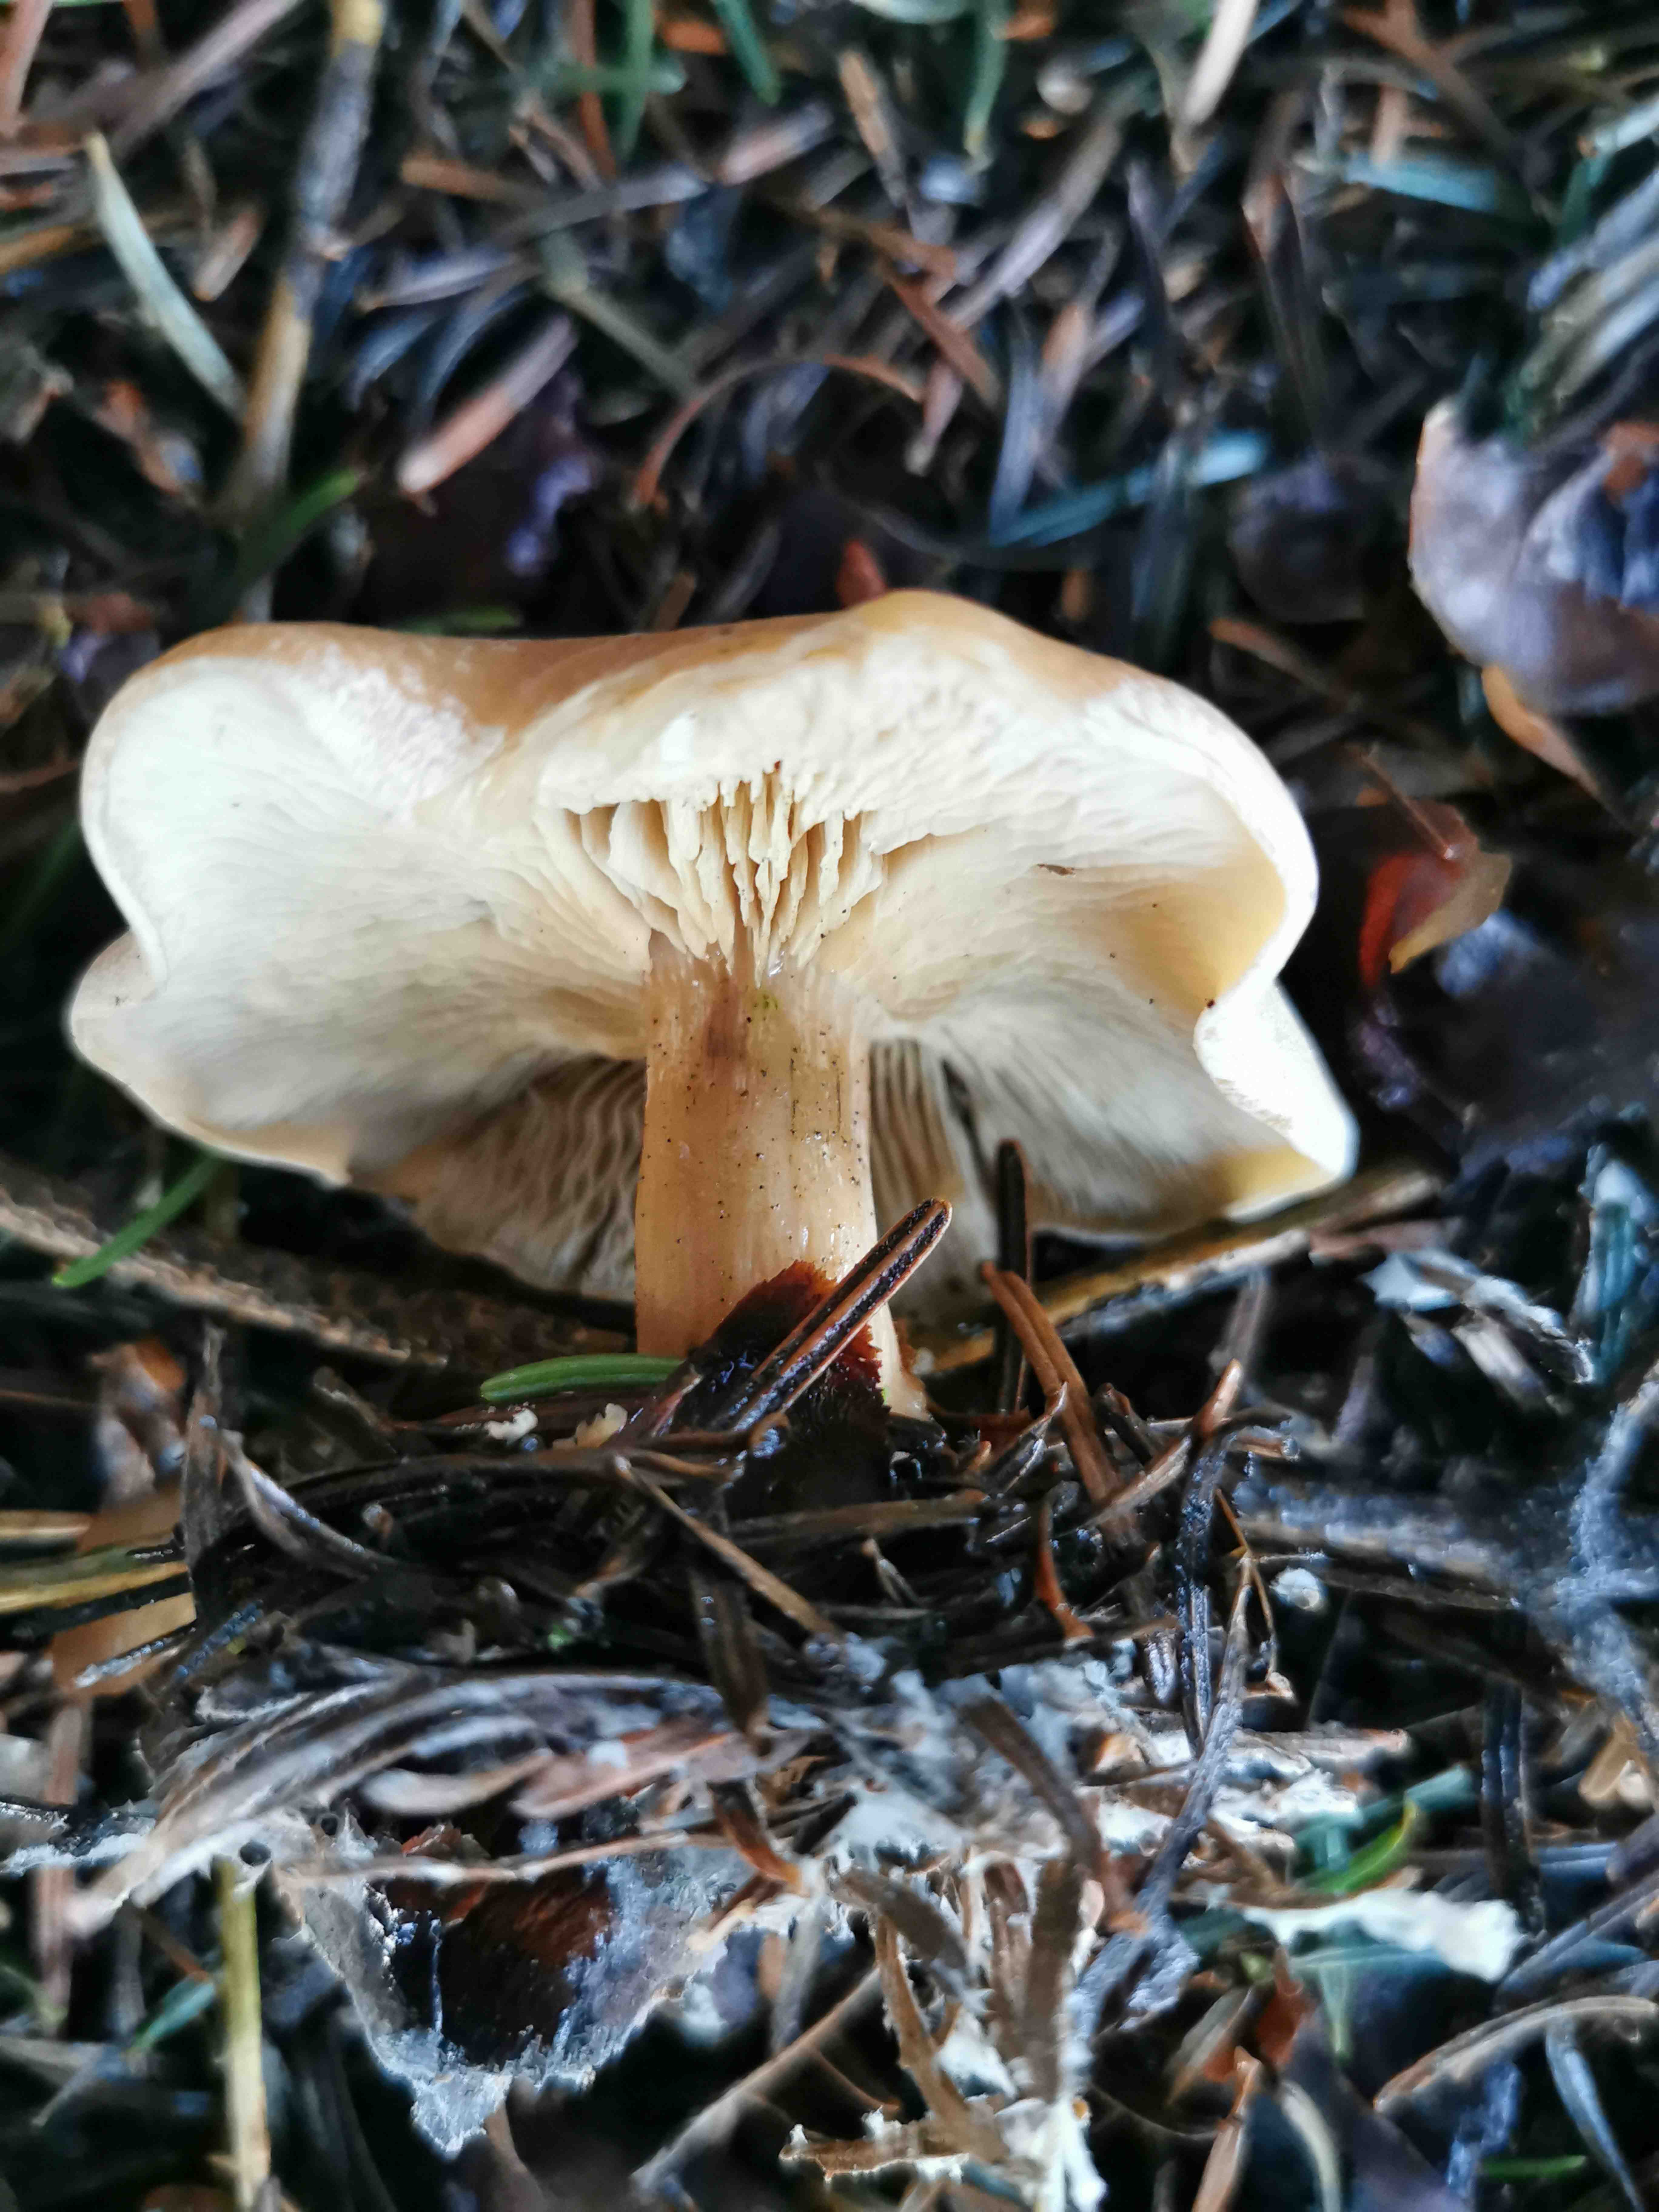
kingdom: Fungi
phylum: Basidiomycota
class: Agaricomycetes
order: Agaricales
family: Tricholomataceae
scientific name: Tricholomataceae
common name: ridderhatfamilien
